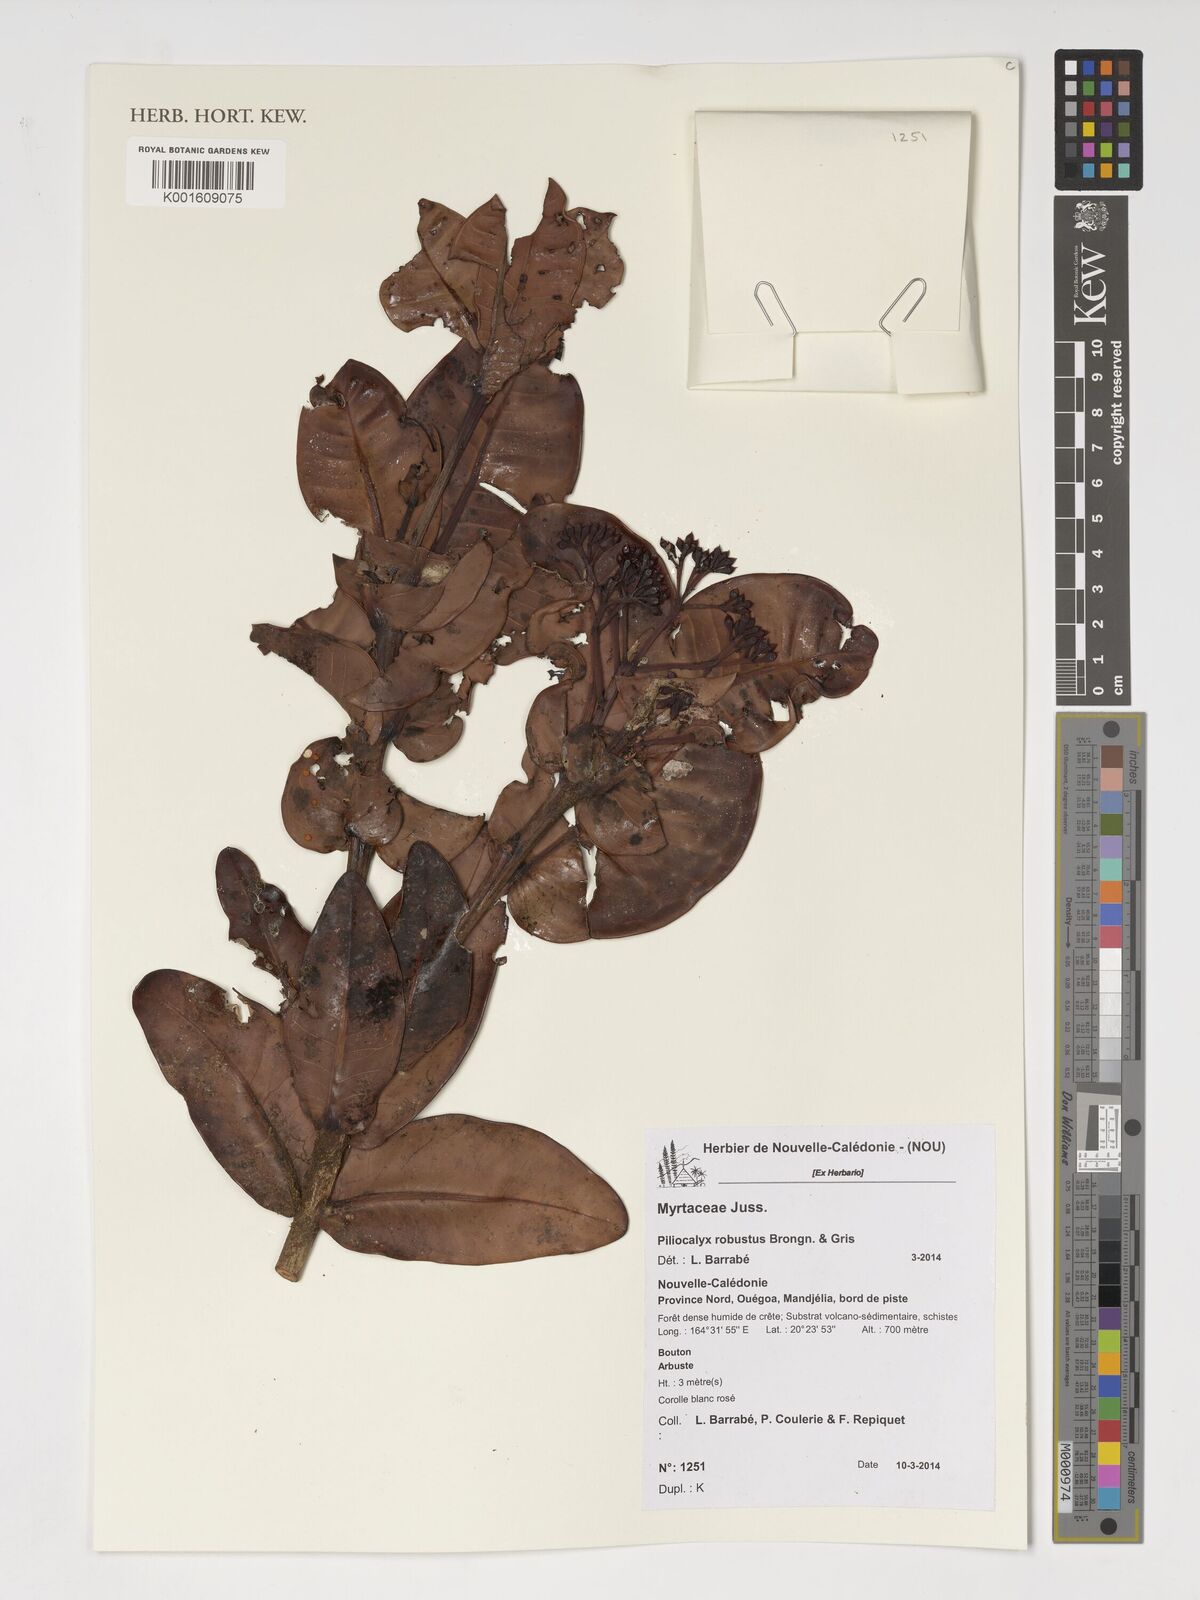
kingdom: Plantae
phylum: Tracheophyta
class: Magnoliopsida
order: Myrtales
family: Myrtaceae
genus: Syzygium
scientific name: Syzygium viriosum
